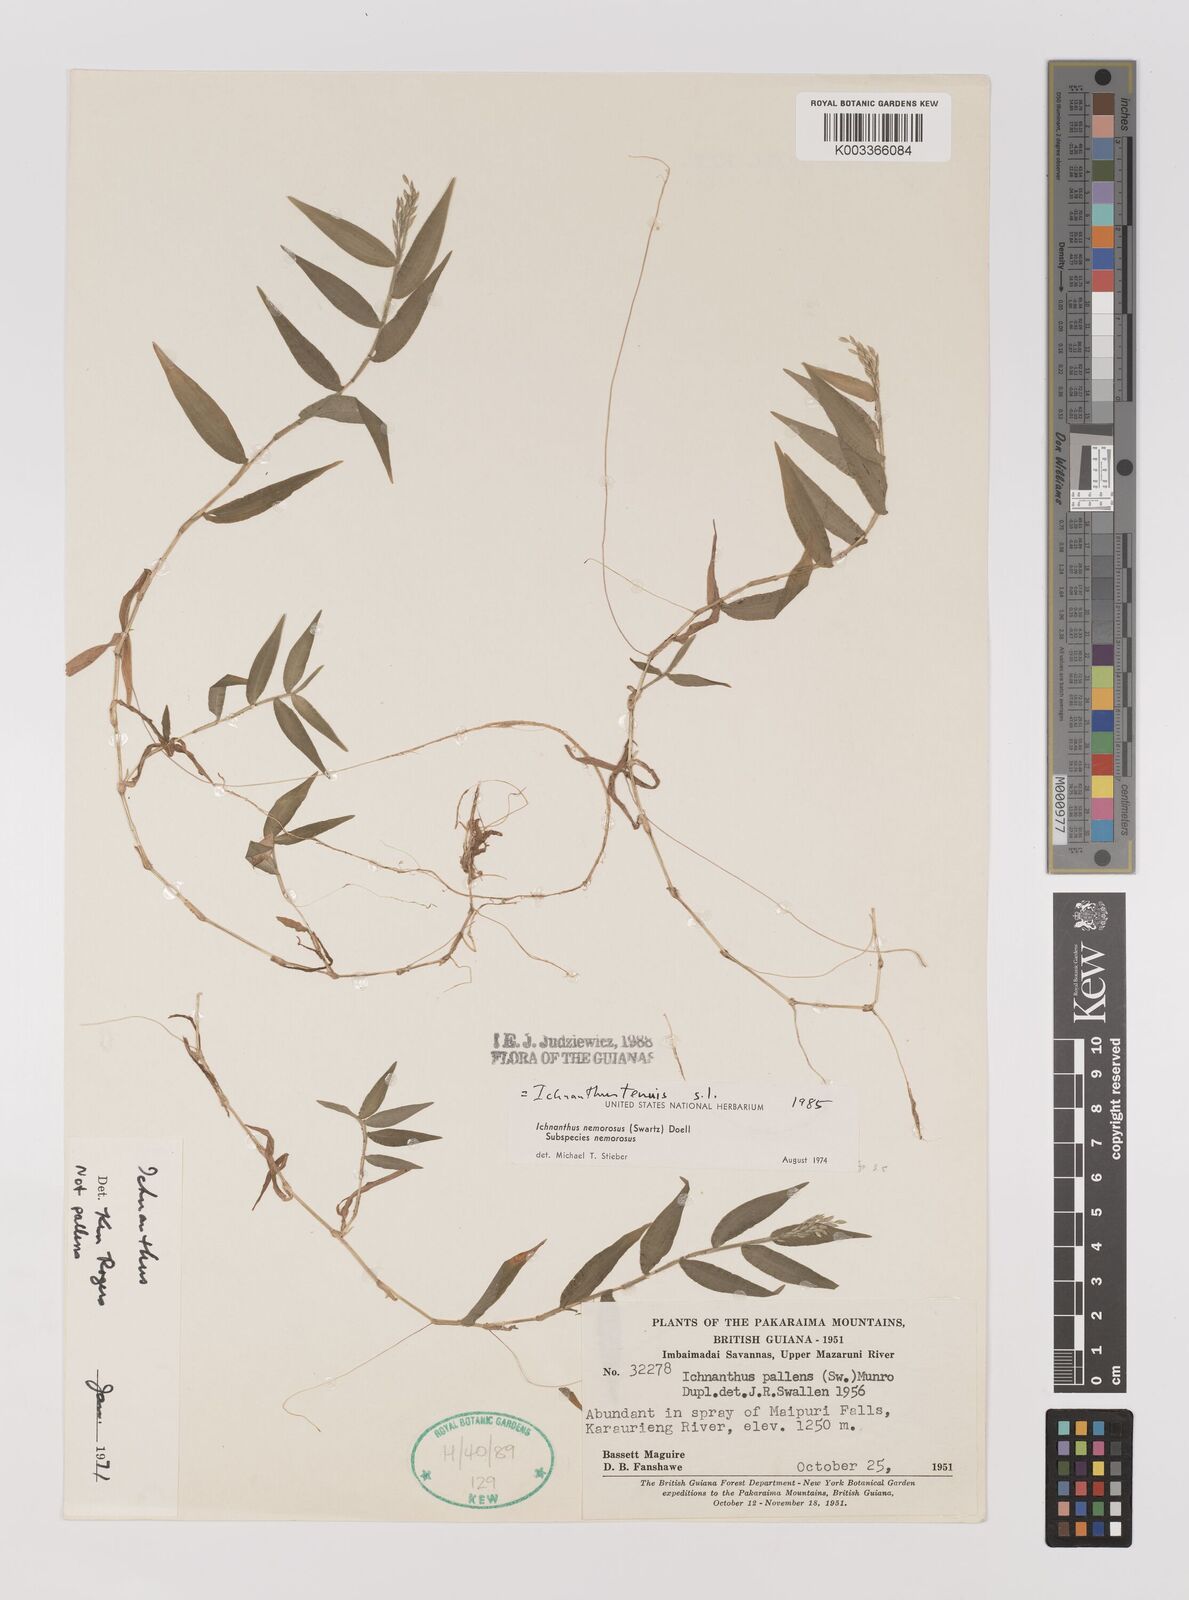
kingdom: Plantae
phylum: Tracheophyta
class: Liliopsida
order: Poales
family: Poaceae
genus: Ichnanthus
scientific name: Ichnanthus tenuis
